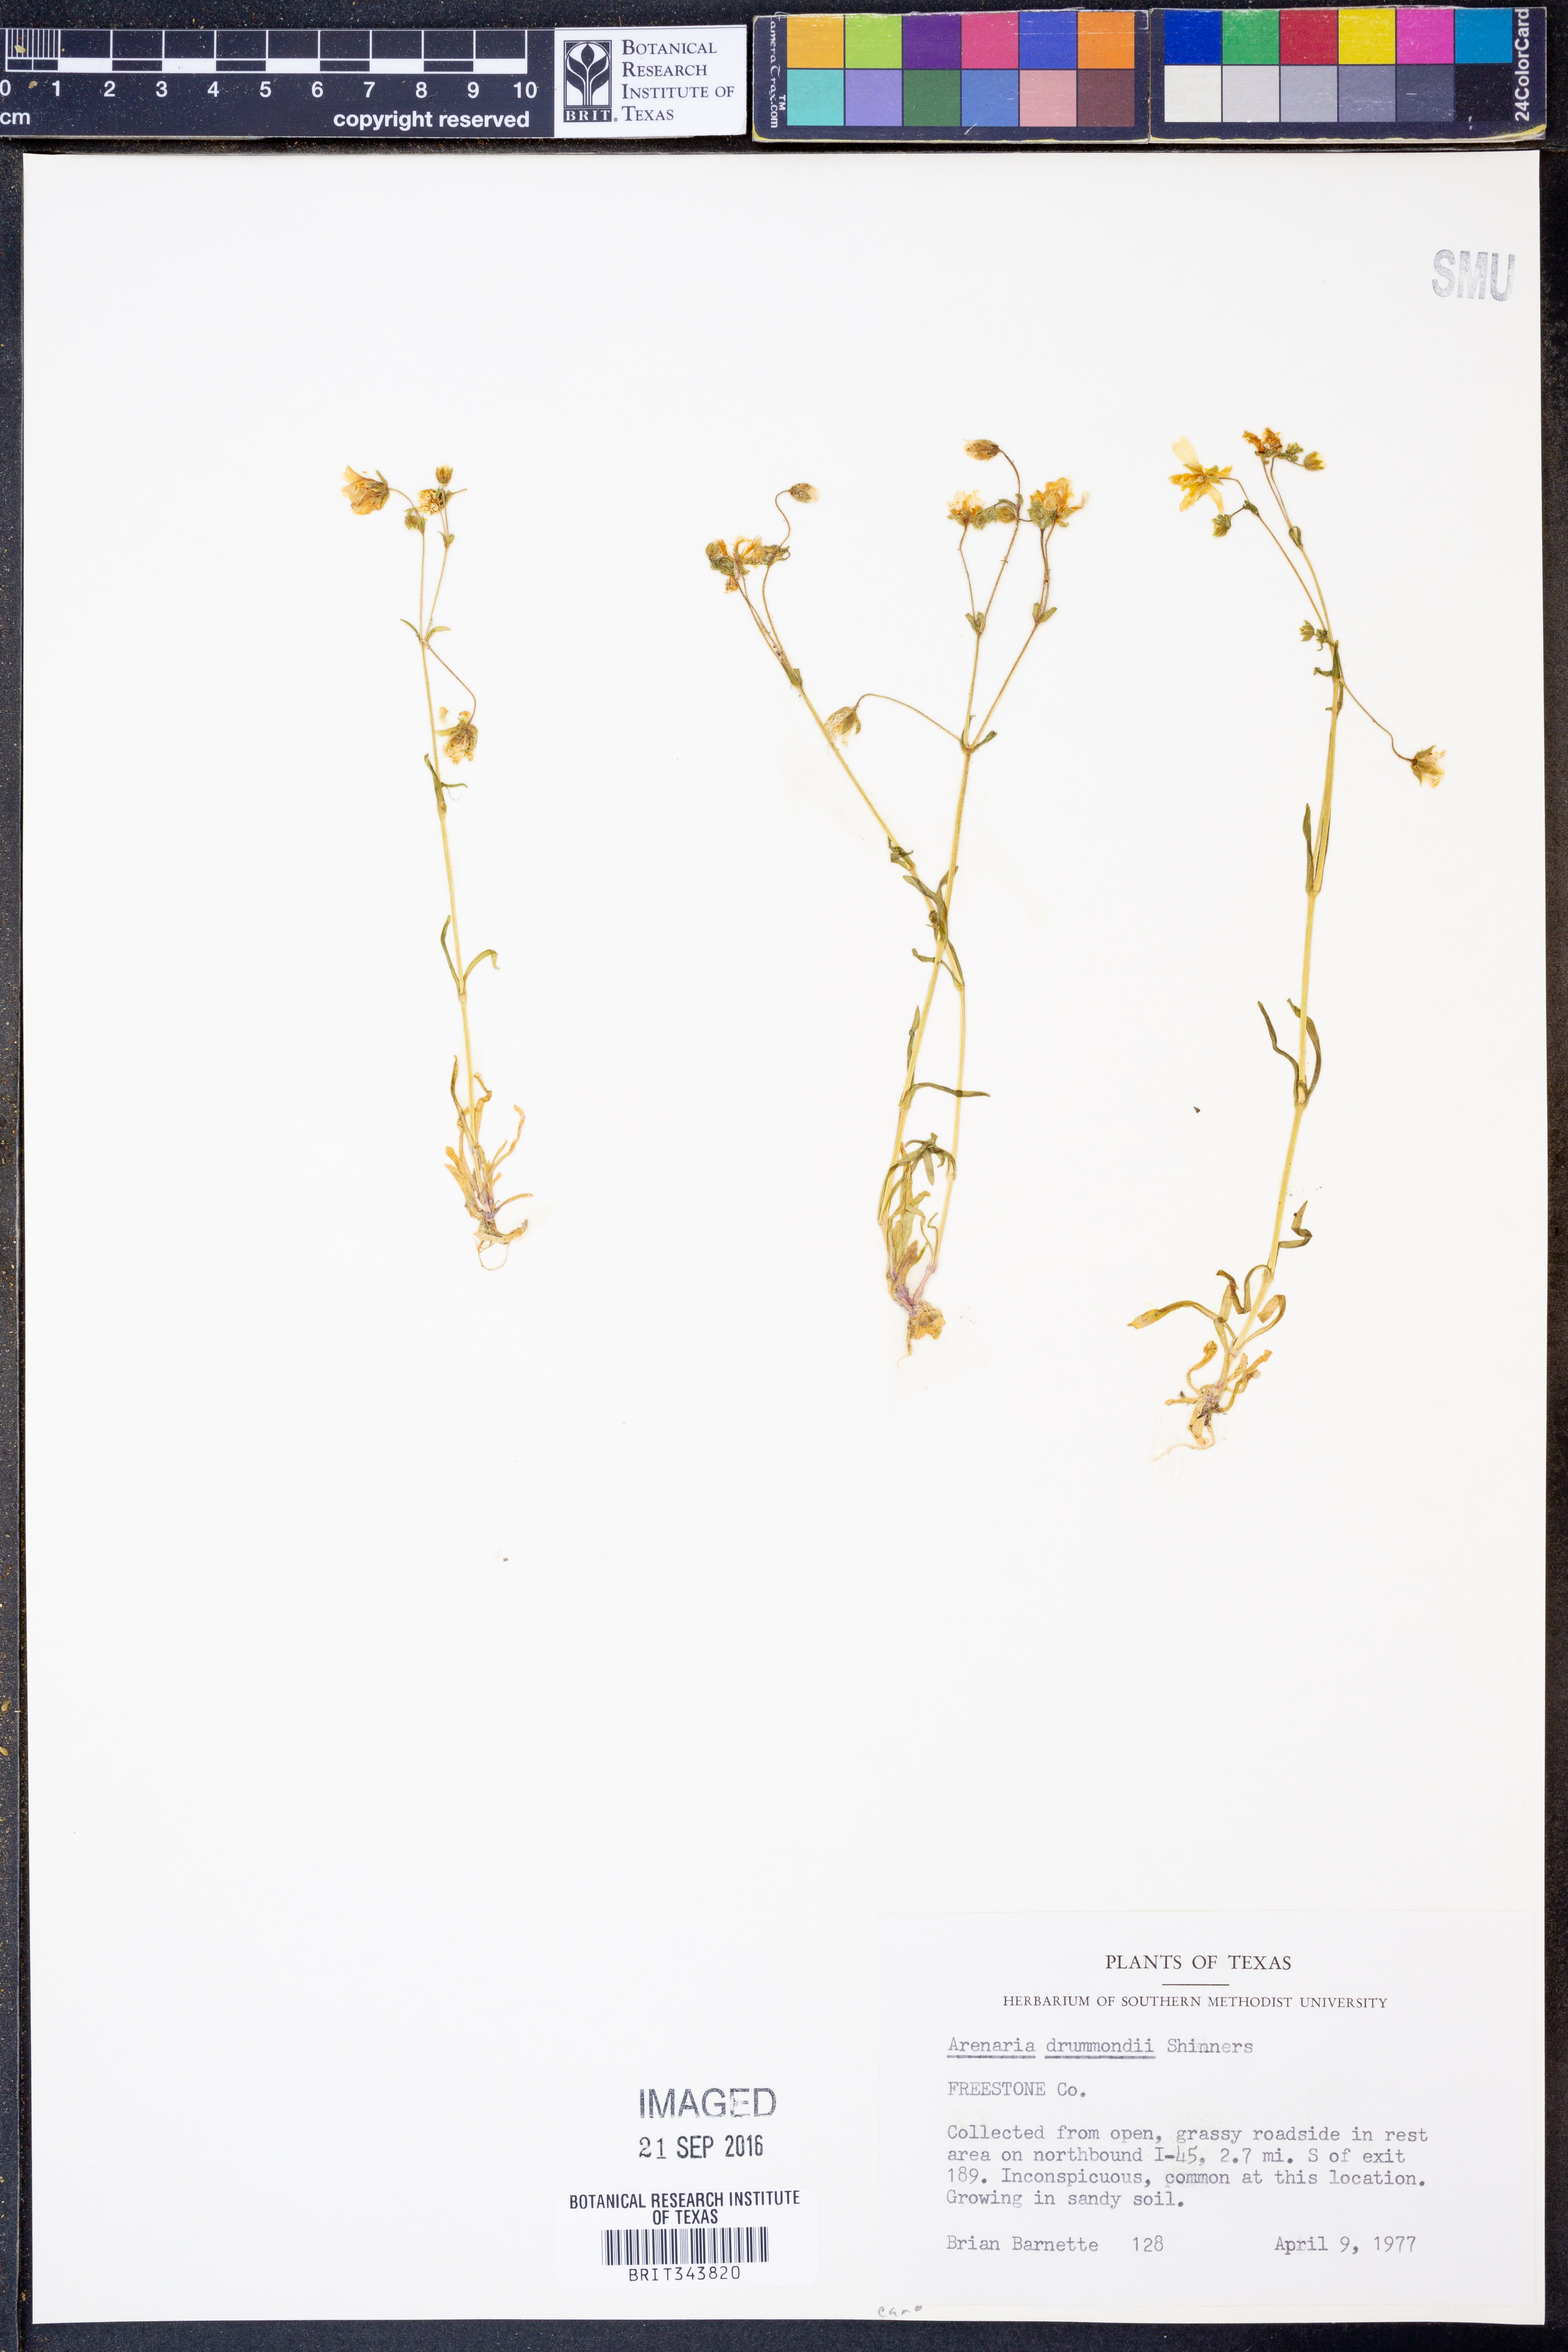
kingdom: Plantae
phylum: Tracheophyta
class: Magnoliopsida
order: Caryophyllales
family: Caryophyllaceae
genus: Geocarpon
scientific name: Geocarpon nuttallii
